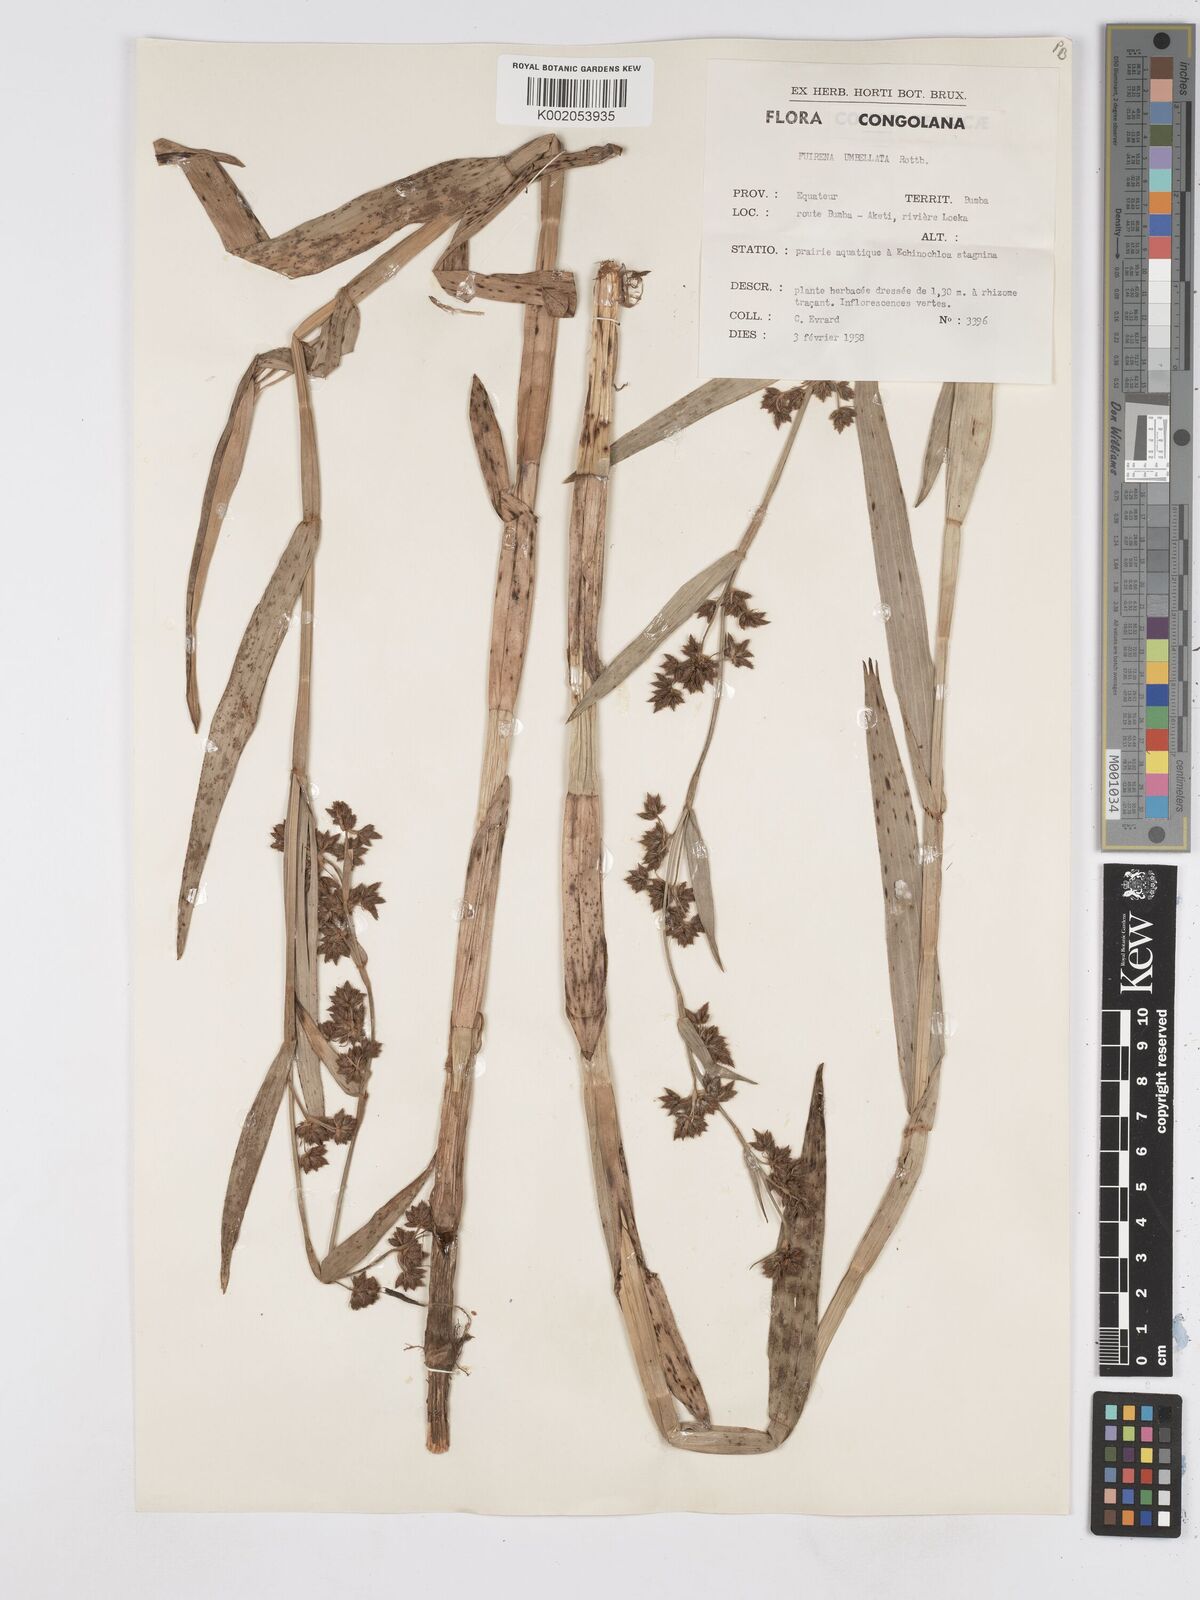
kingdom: Plantae
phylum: Tracheophyta
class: Liliopsida
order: Poales
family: Cyperaceae
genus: Fuirena
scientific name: Fuirena umbellata
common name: Yefen
